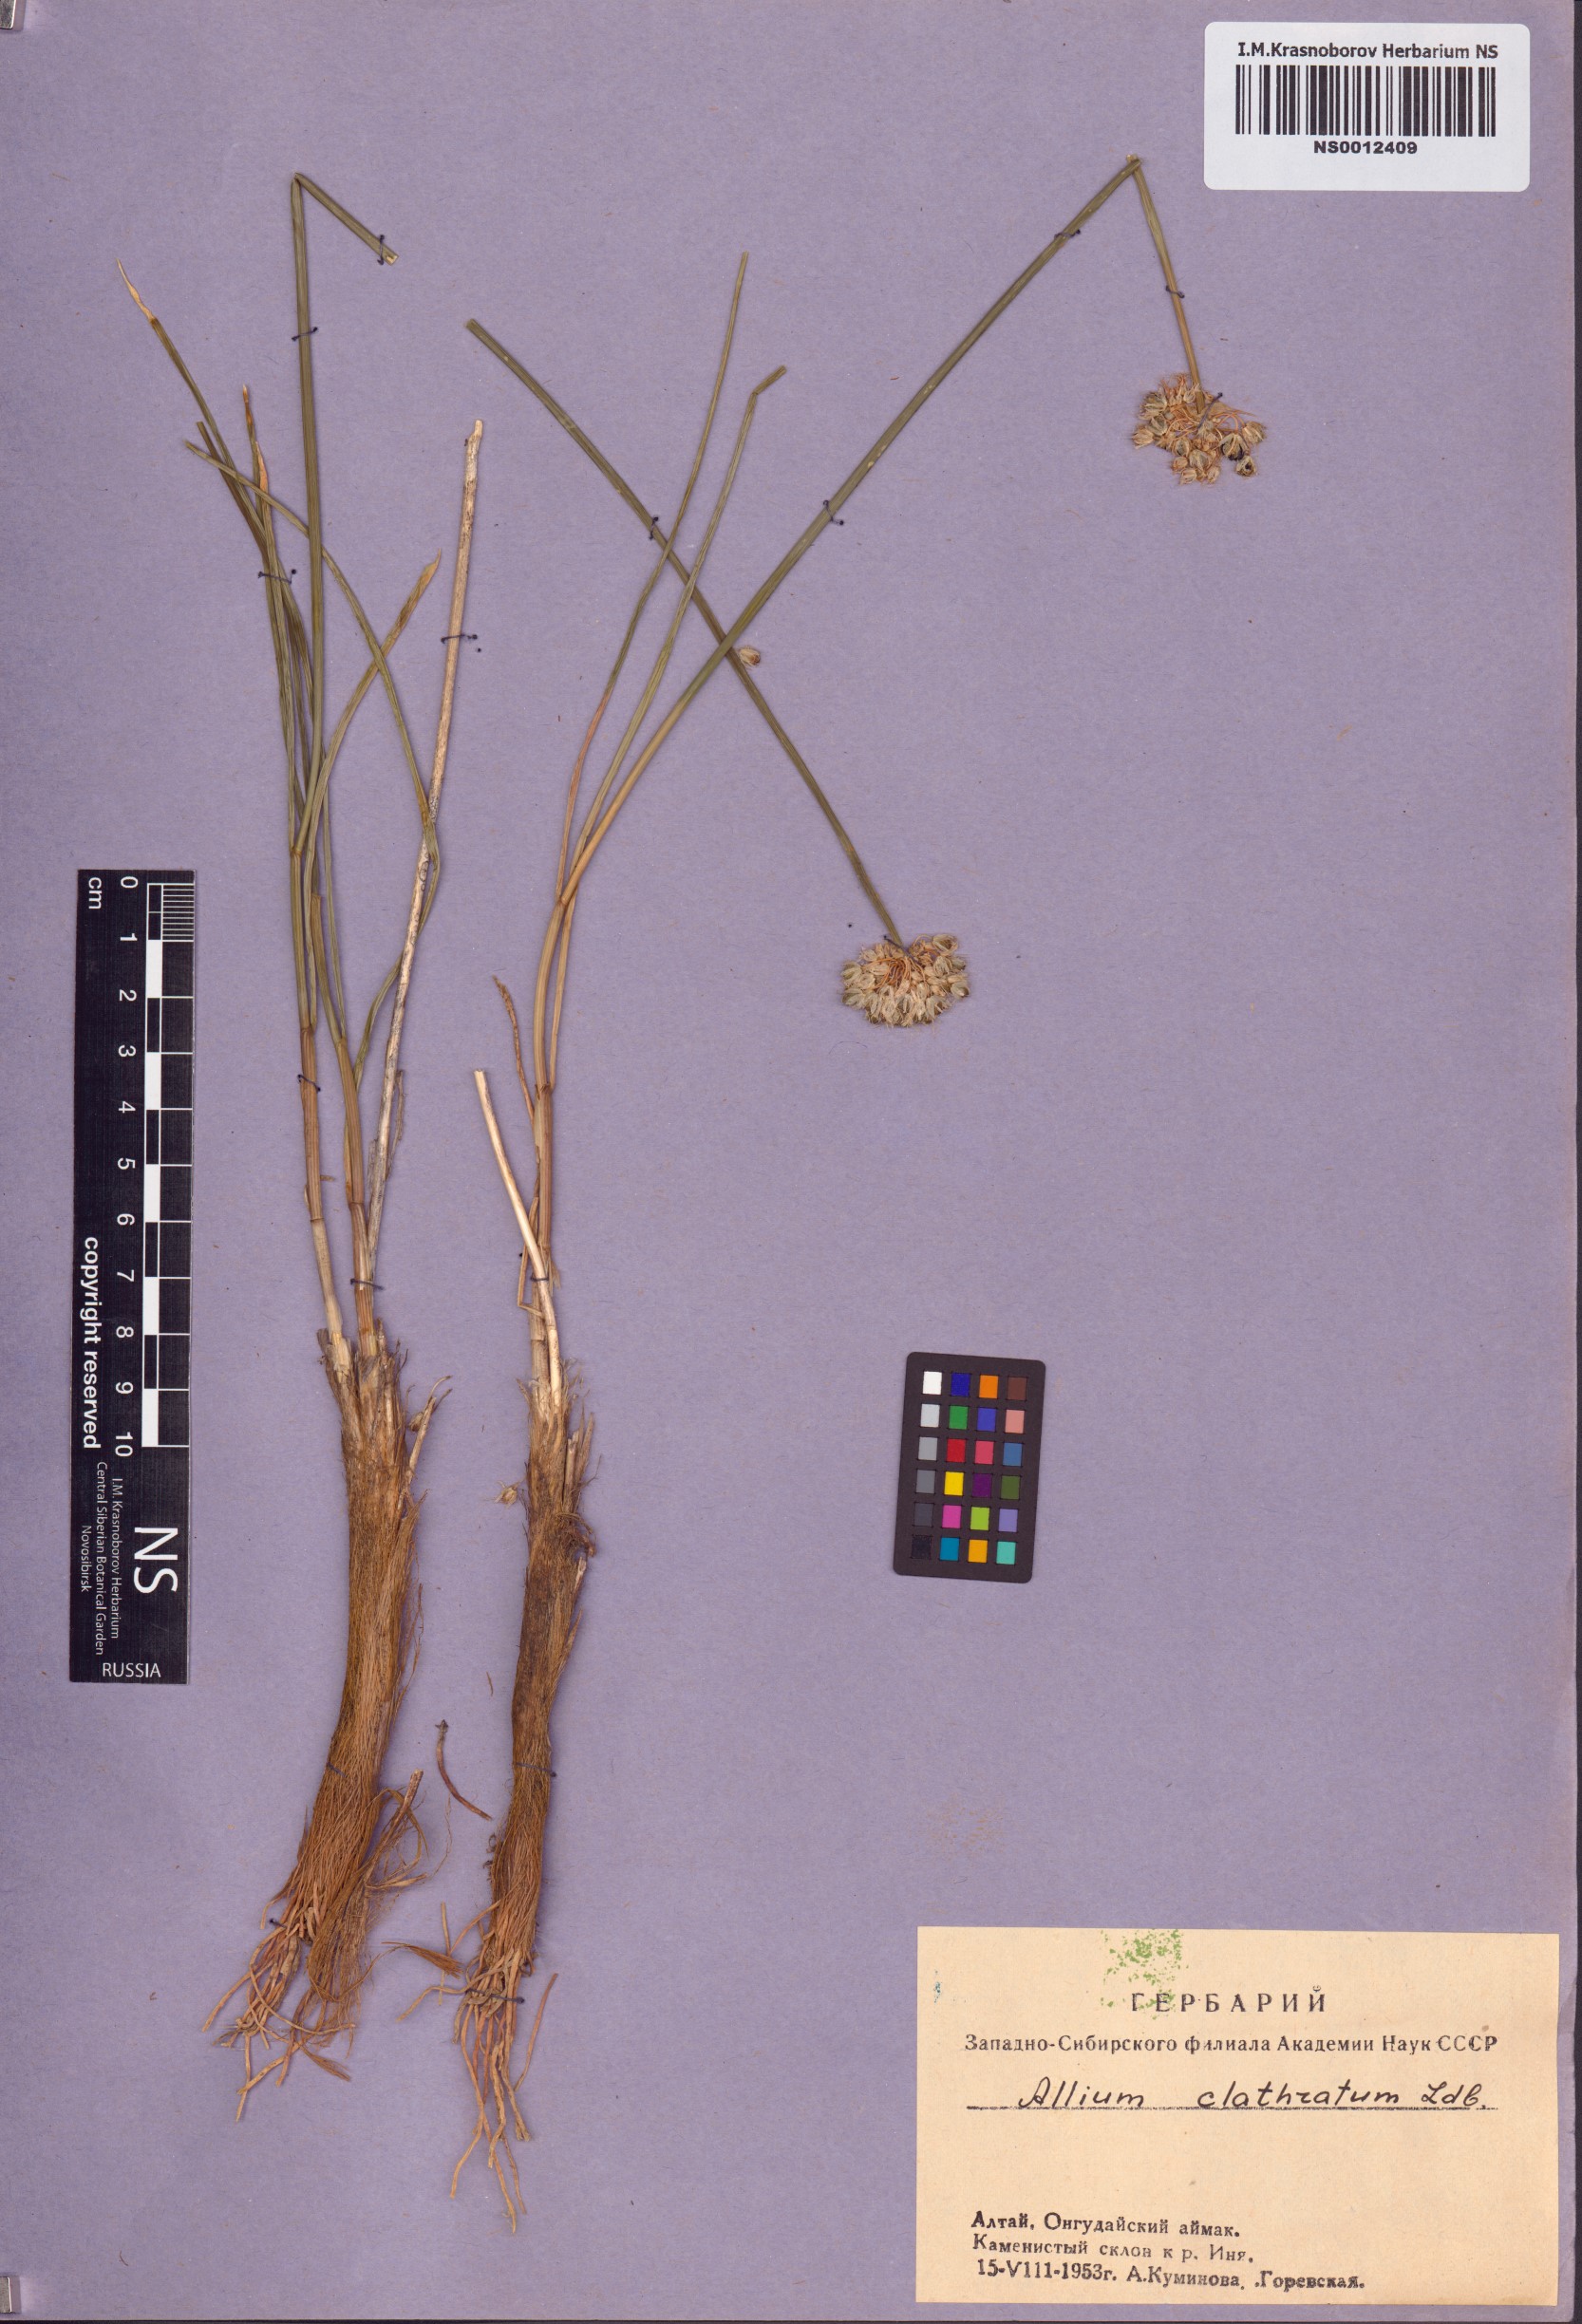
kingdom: Plantae
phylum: Tracheophyta
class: Liliopsida
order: Asparagales
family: Amaryllidaceae
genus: Allium
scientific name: Allium clathratum
